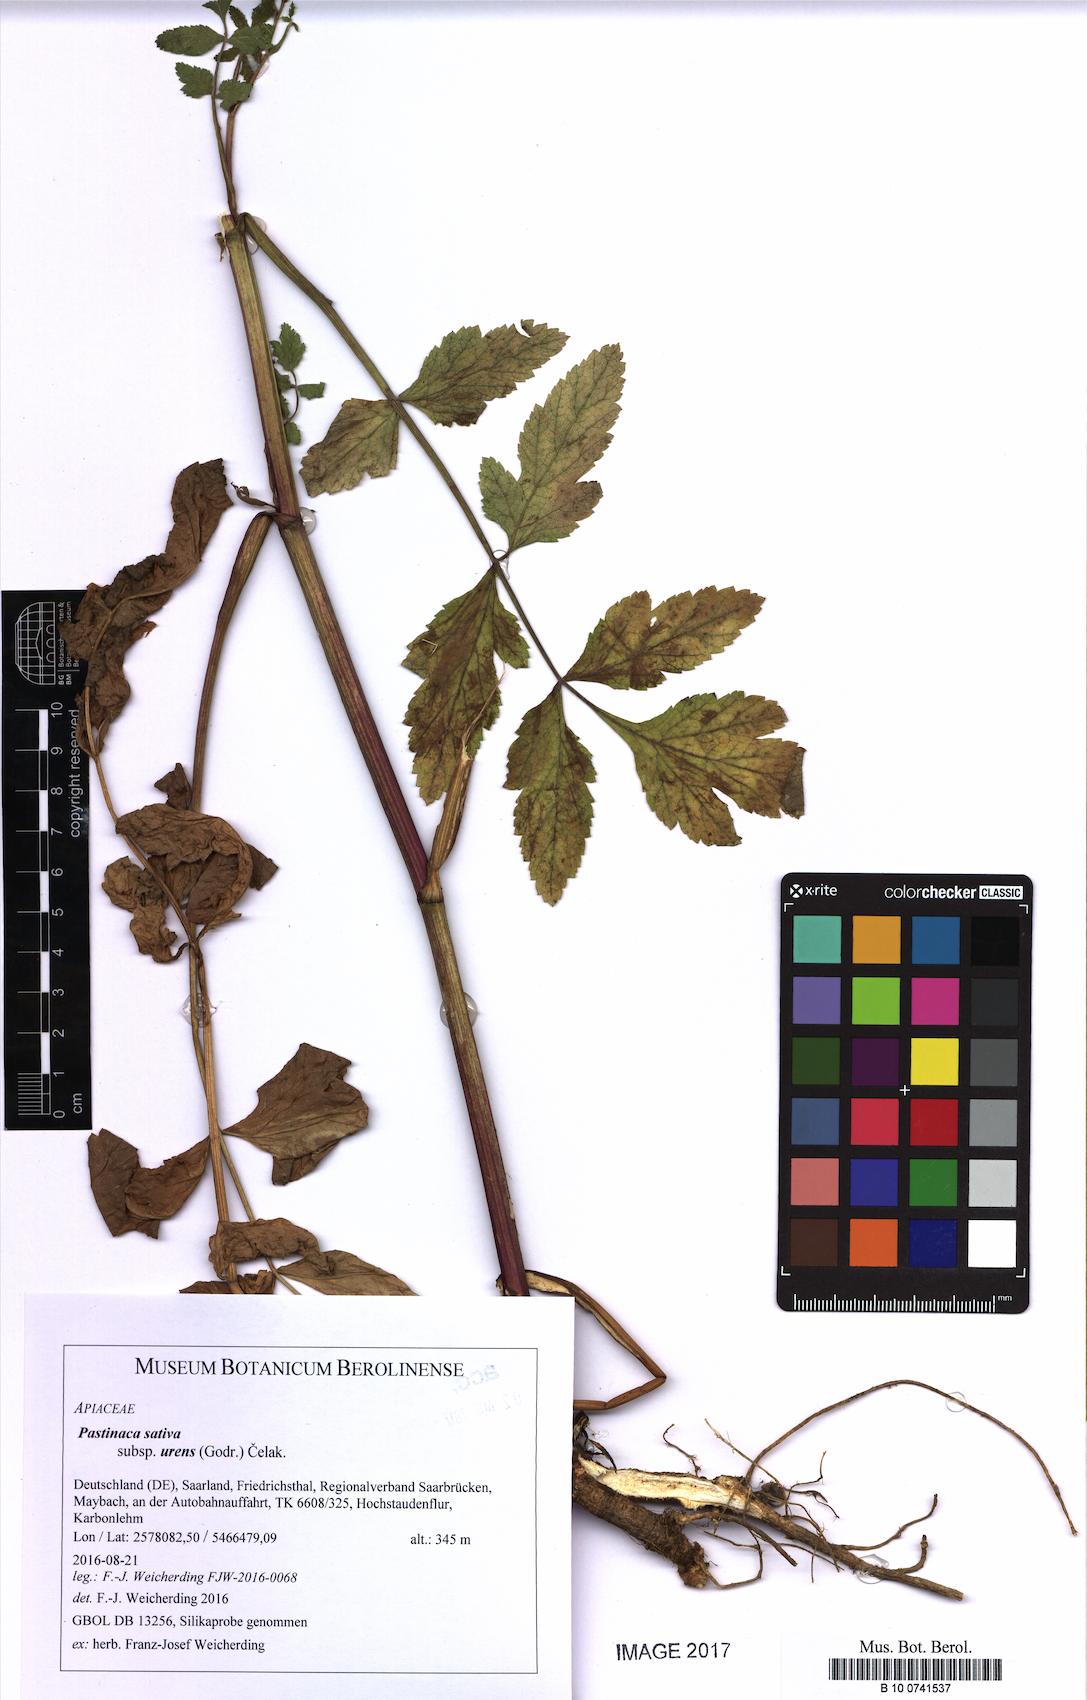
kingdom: Plantae
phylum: Tracheophyta
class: Magnoliopsida
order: Apiales
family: Apiaceae
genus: Pastinaca
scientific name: Pastinaca sativa
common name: Wild parsnip
